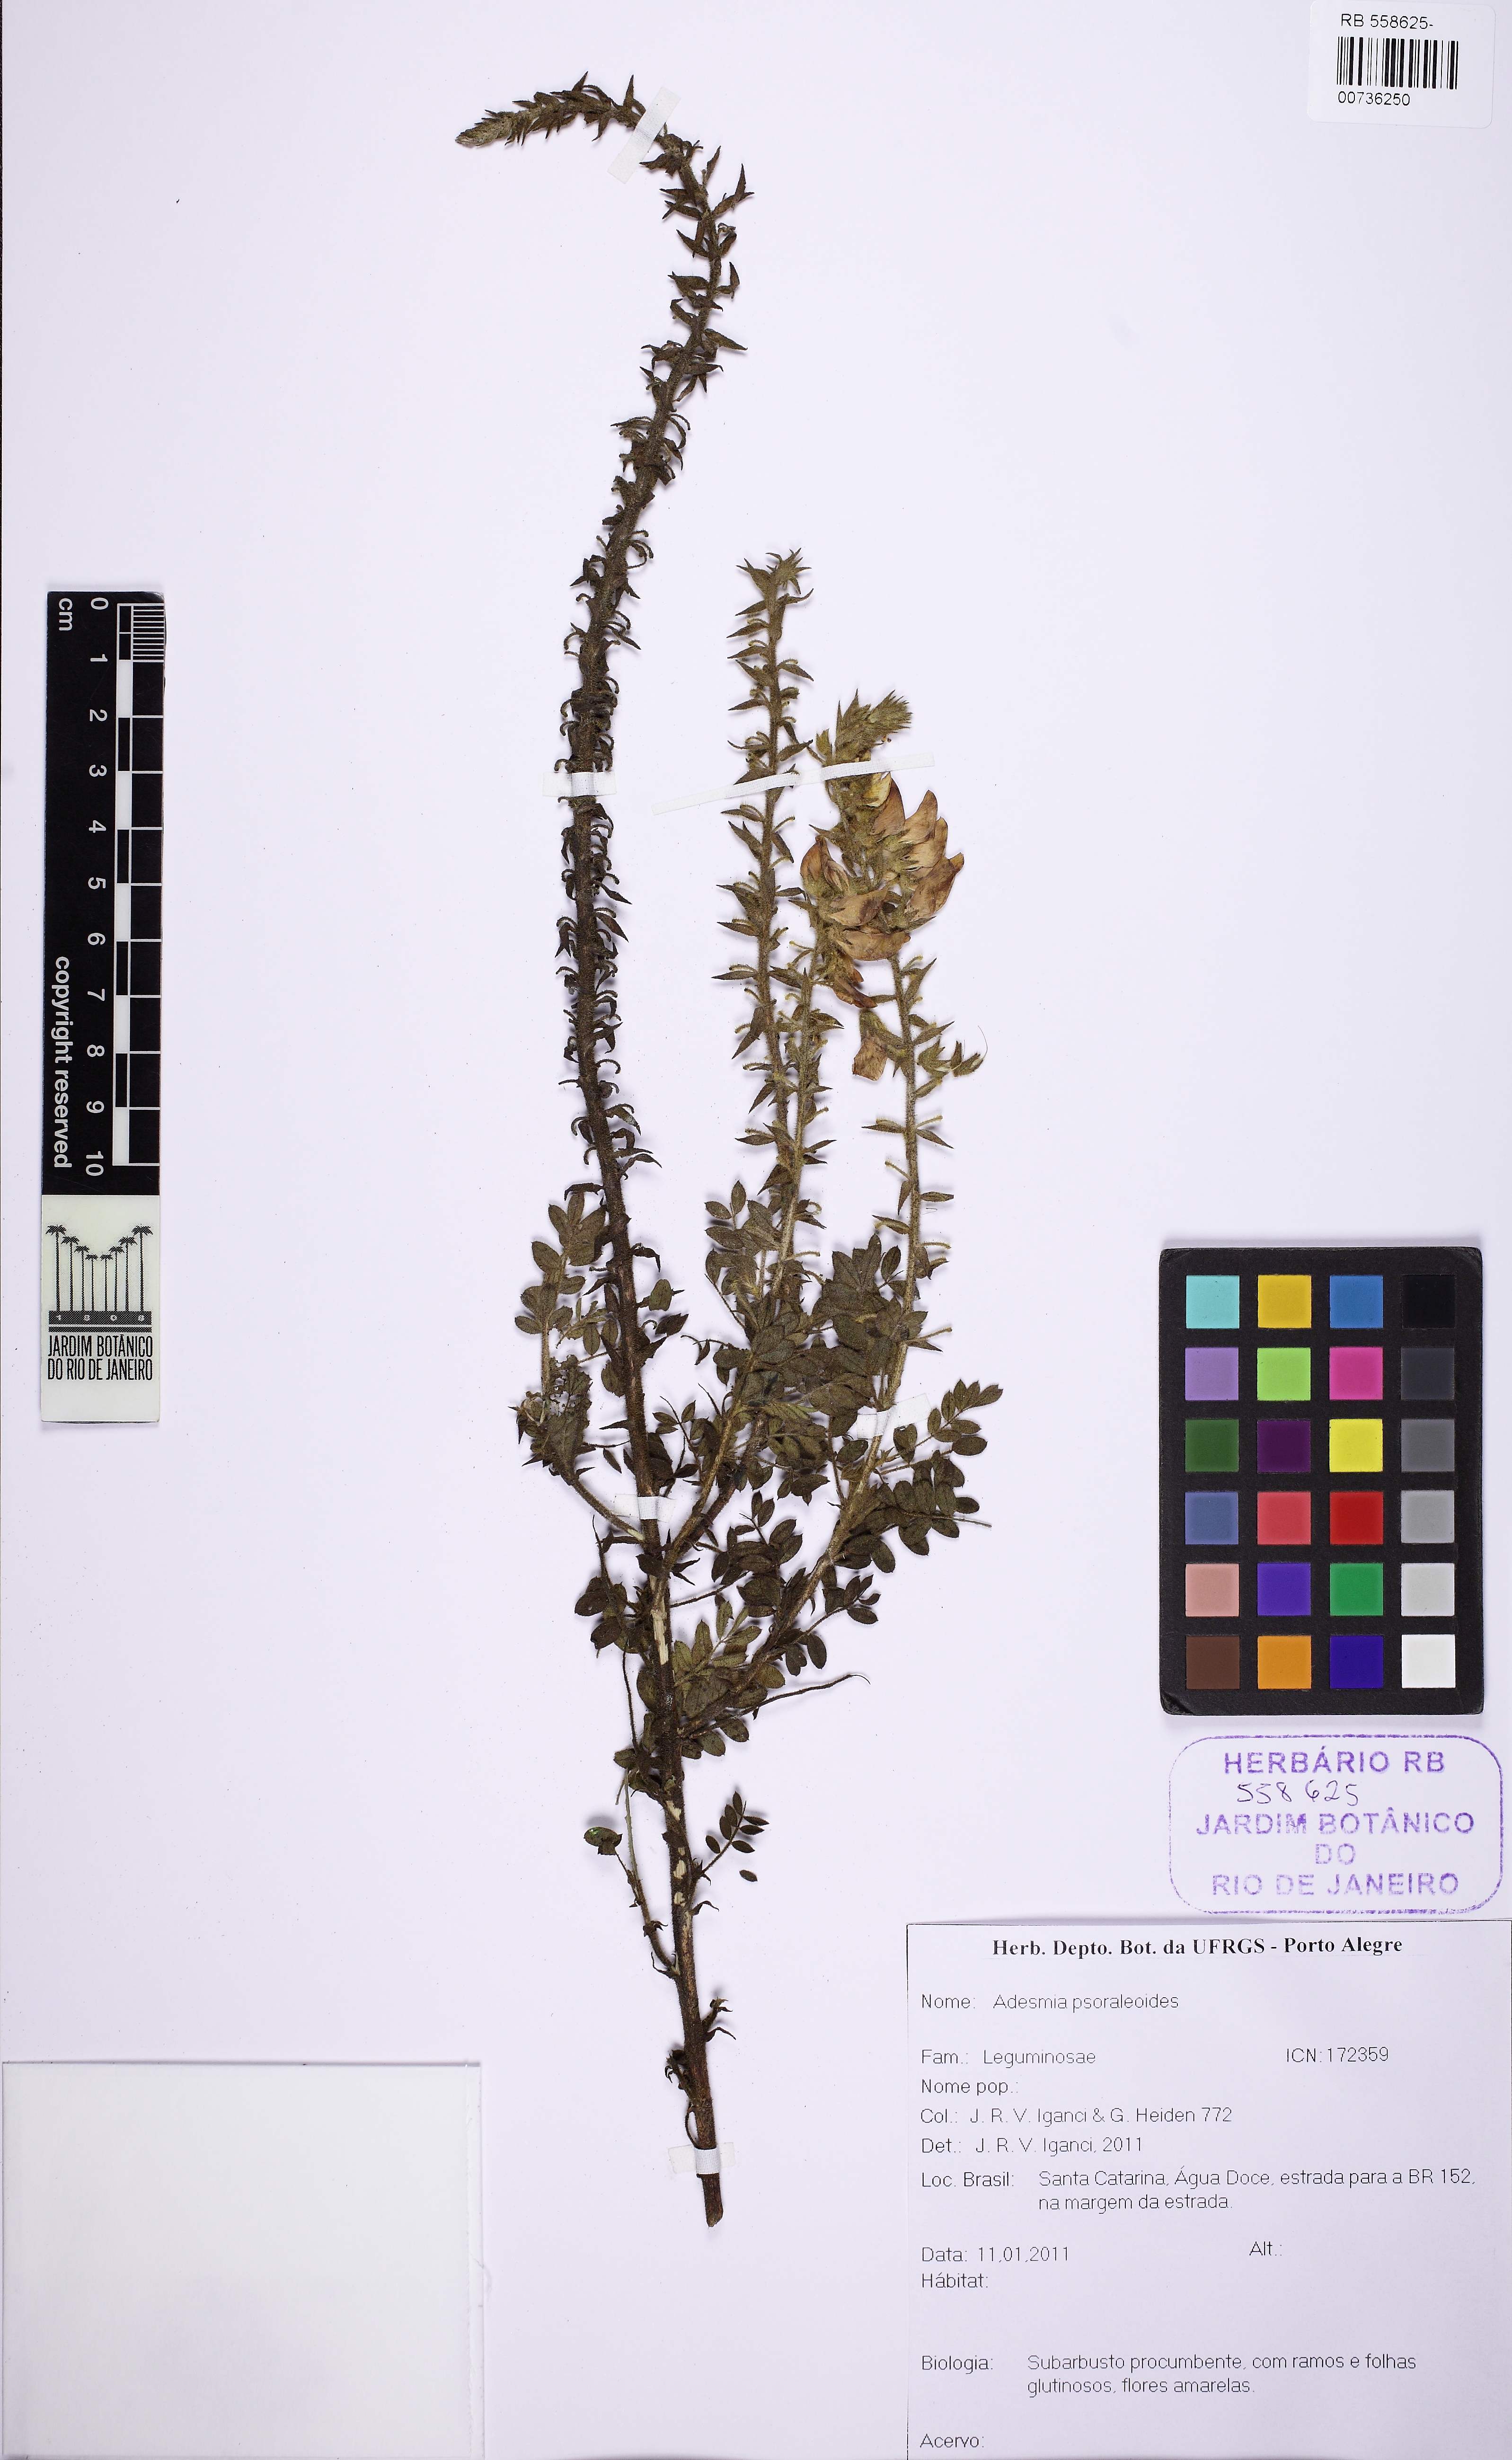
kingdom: Plantae
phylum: Tracheophyta
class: Magnoliopsida
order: Fabales
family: Fabaceae
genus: Adesmia
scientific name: Adesmia psoraleoides
